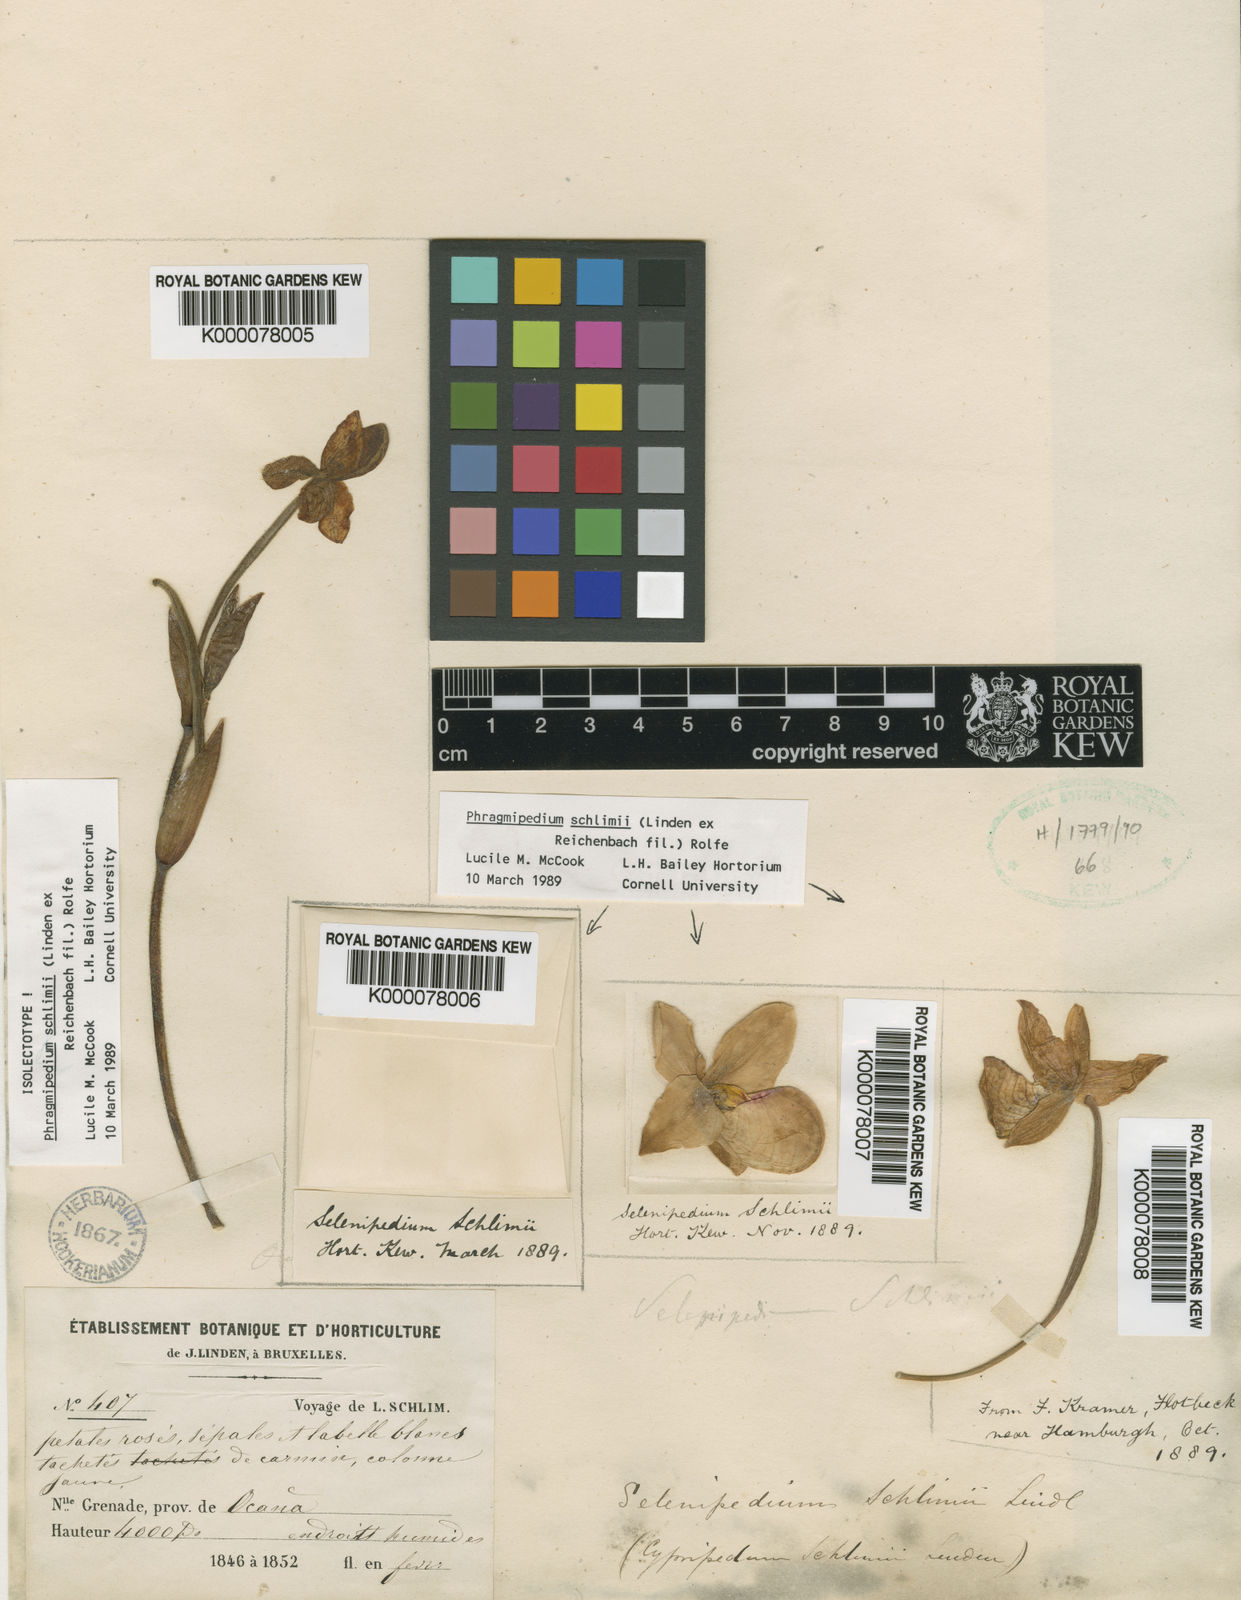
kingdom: Plantae
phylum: Tracheophyta
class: Liliopsida
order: Asparagales
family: Orchidaceae
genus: Phragmipedium
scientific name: Phragmipedium schlimii
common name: Schlimm's phragmipedium
